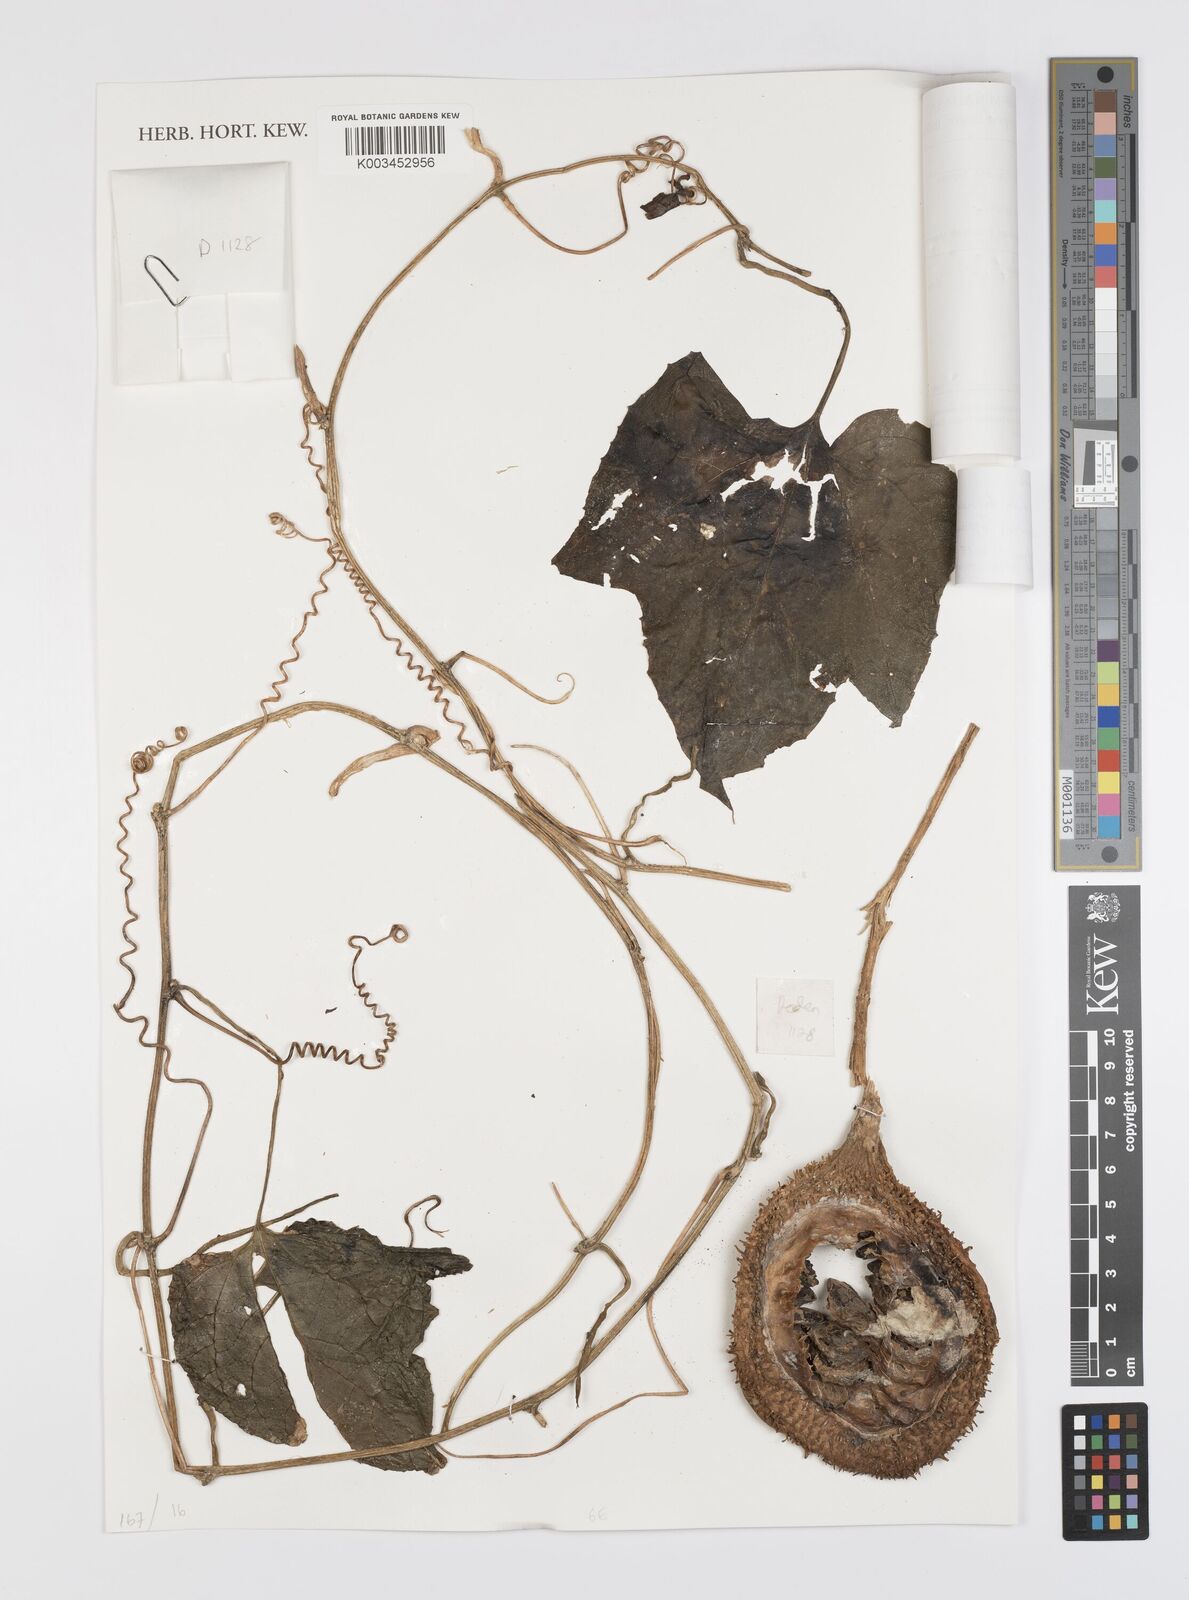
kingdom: Plantae
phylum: Tracheophyta
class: Magnoliopsida
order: Cucurbitales
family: Cucurbitaceae
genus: Momordica
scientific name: Momordica cochinchinensis
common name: Chinese bitter-cucumber
